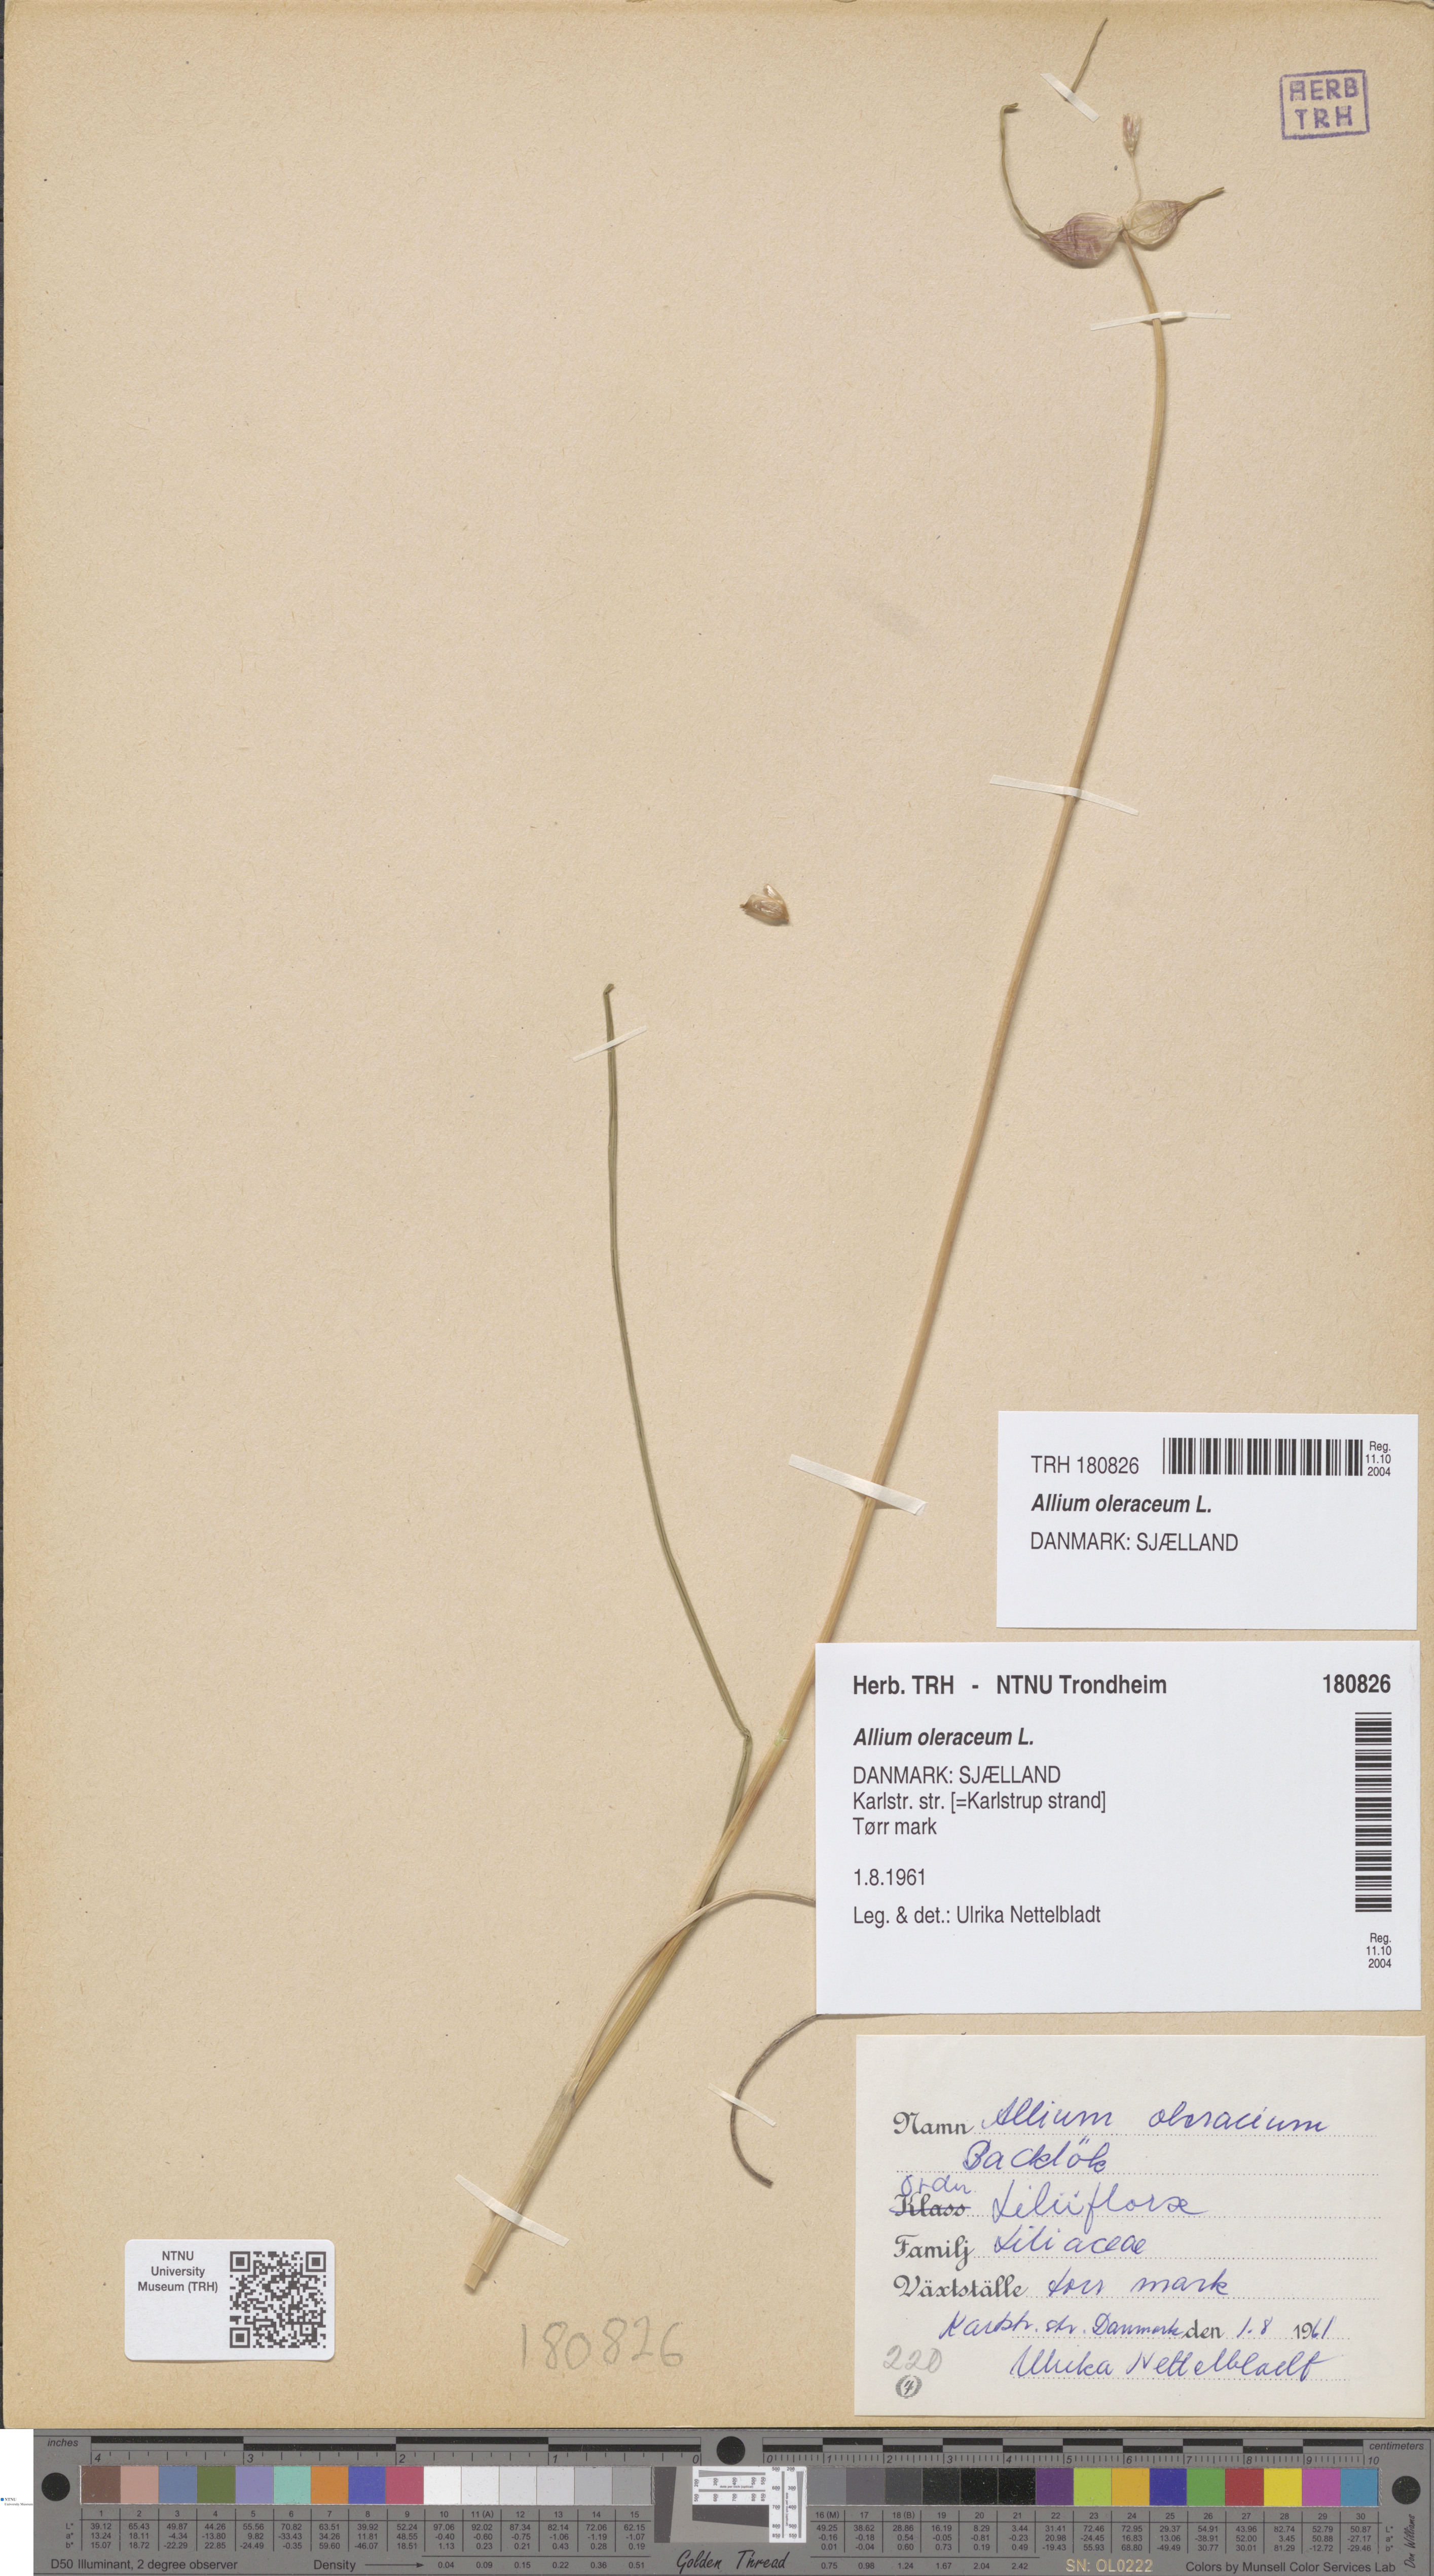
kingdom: Plantae
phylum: Tracheophyta
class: Liliopsida
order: Asparagales
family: Amaryllidaceae
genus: Allium
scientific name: Allium oleraceum
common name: Field garlic
